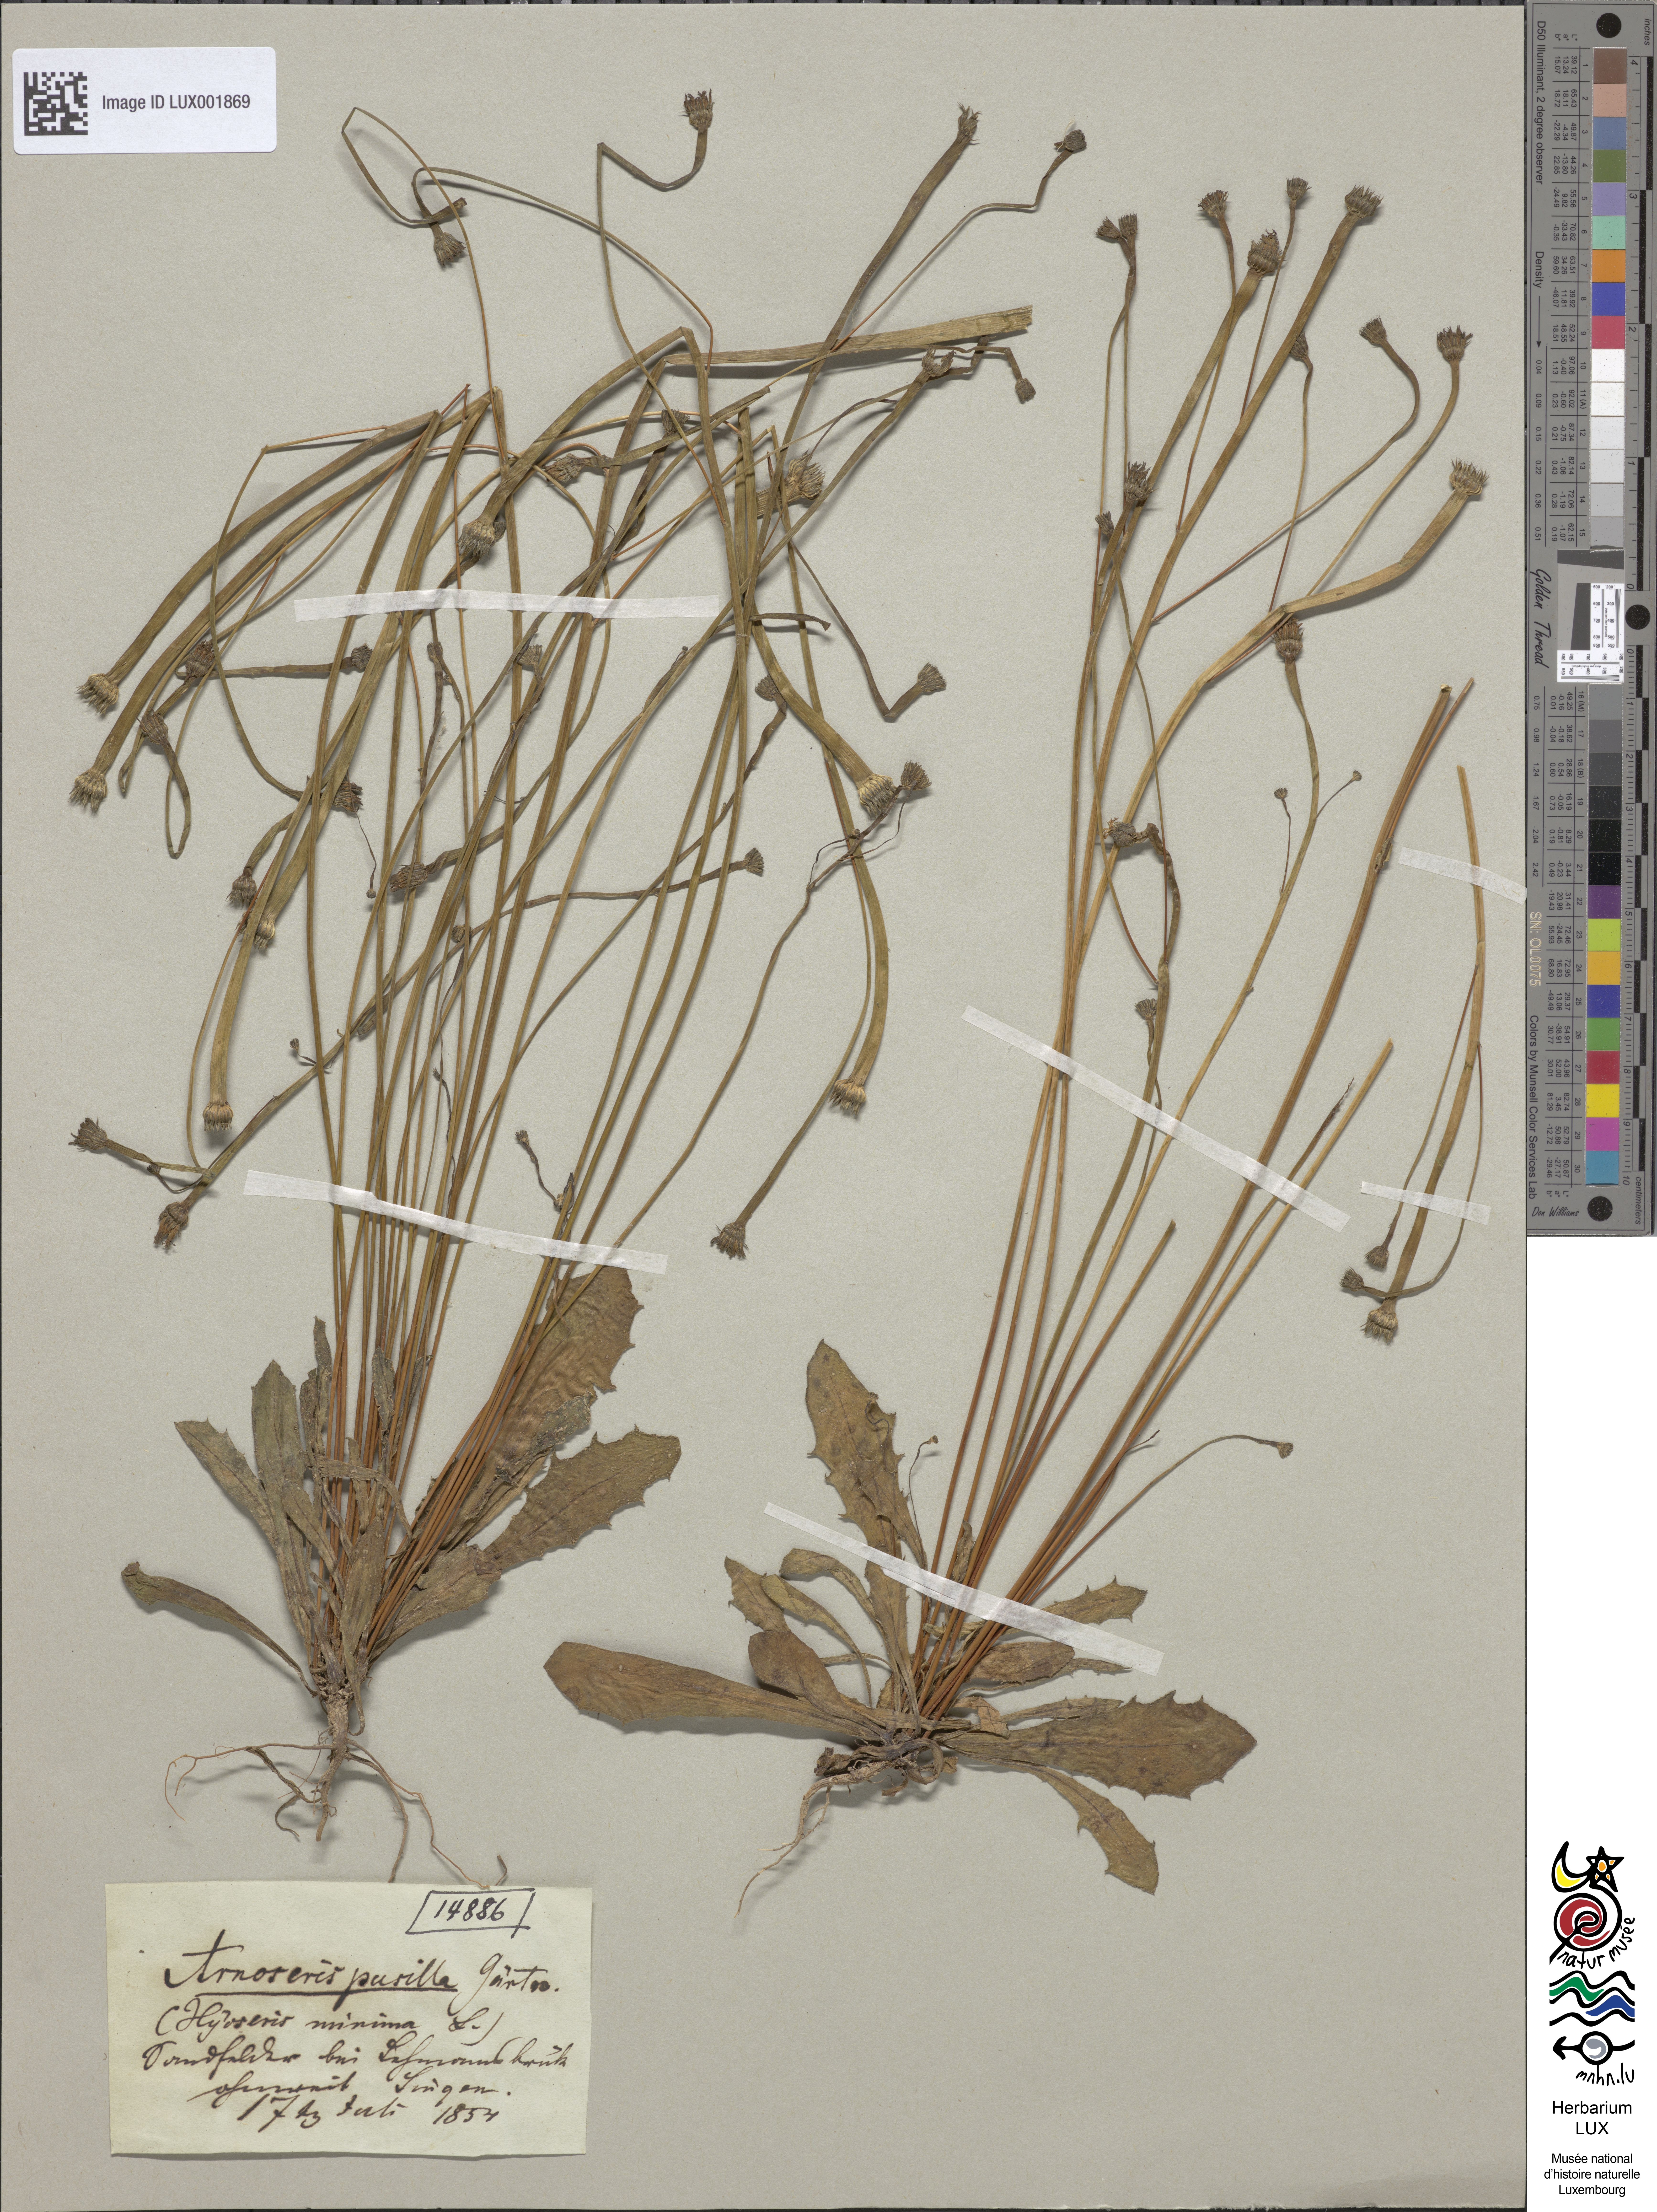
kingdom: Plantae
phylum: Tracheophyta
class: Magnoliopsida
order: Asterales
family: Asteraceae
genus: Arnoseris
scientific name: Arnoseris minima
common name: Lamb's succory
